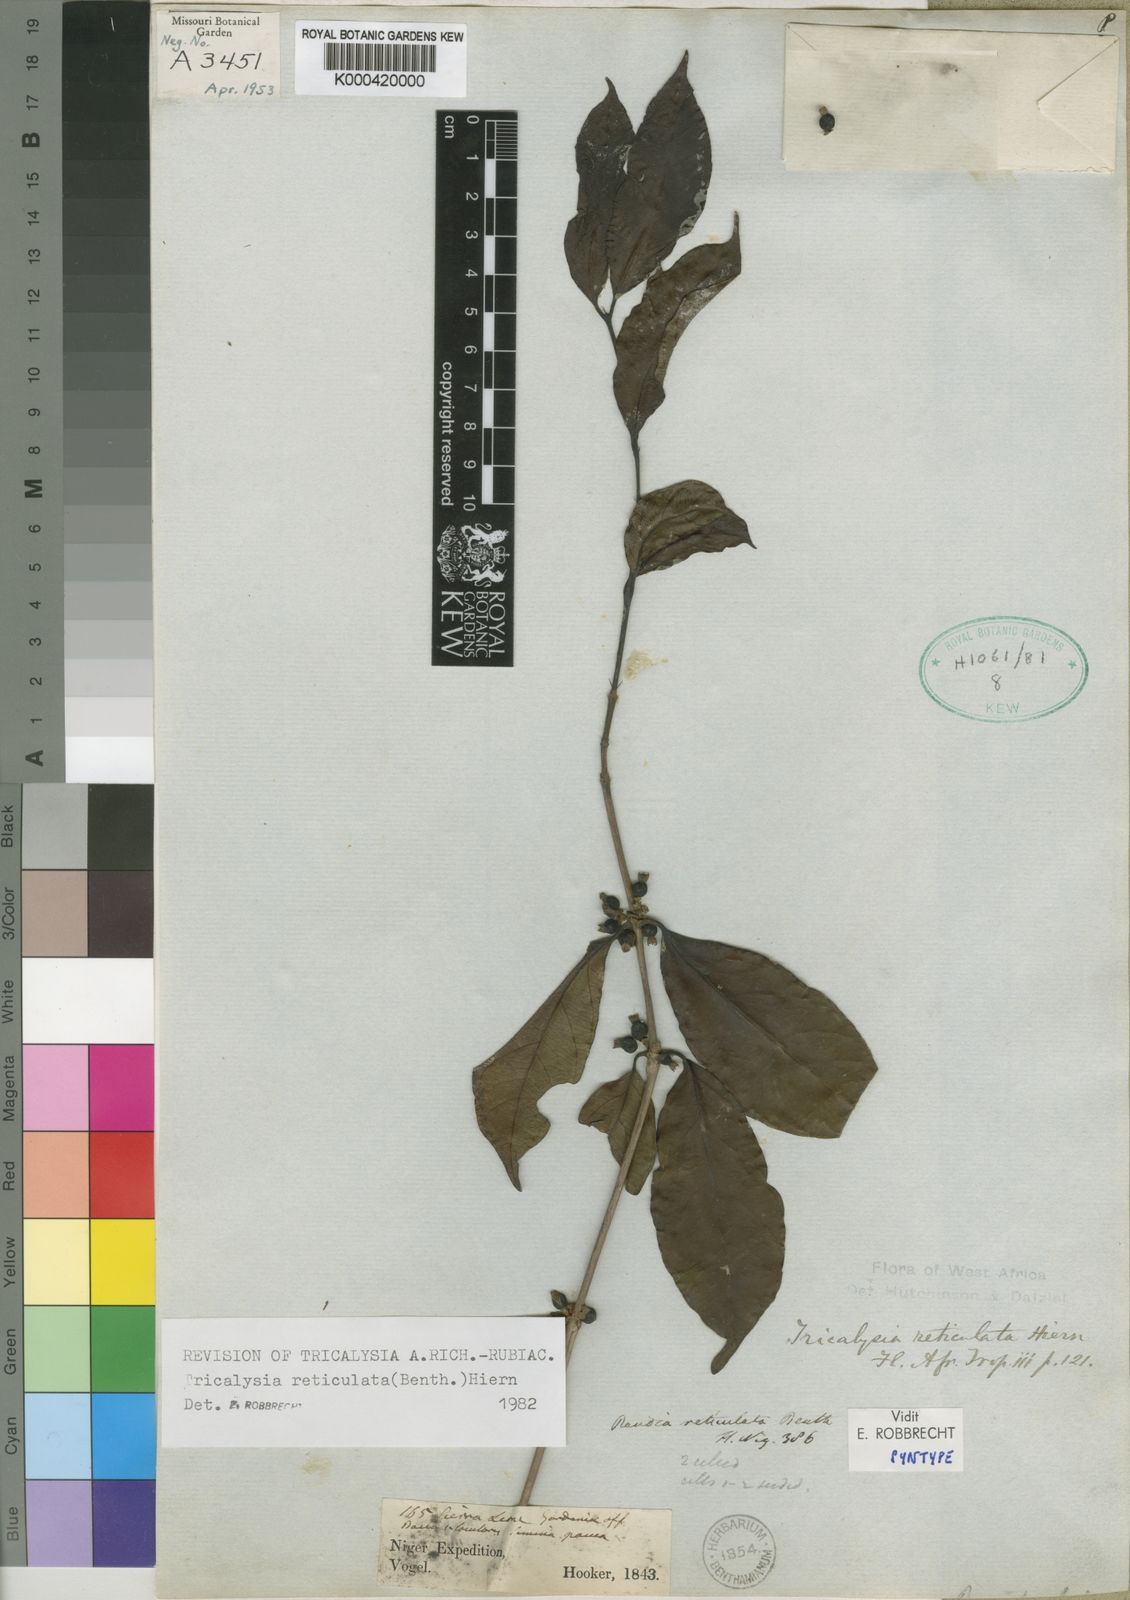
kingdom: Plantae
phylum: Tracheophyta
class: Magnoliopsida
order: Gentianales
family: Rubiaceae
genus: Tricalysia
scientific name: Tricalysia reticulata
